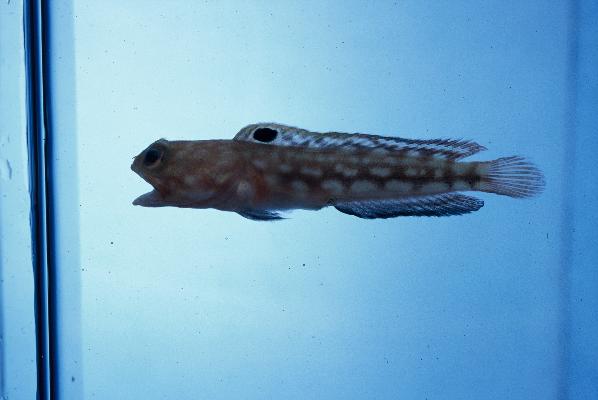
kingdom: Animalia
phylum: Chordata
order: Perciformes
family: Opistognathidae
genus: Opistognathus
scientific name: Opistognathus margaretae
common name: Halfscaled jawfish
